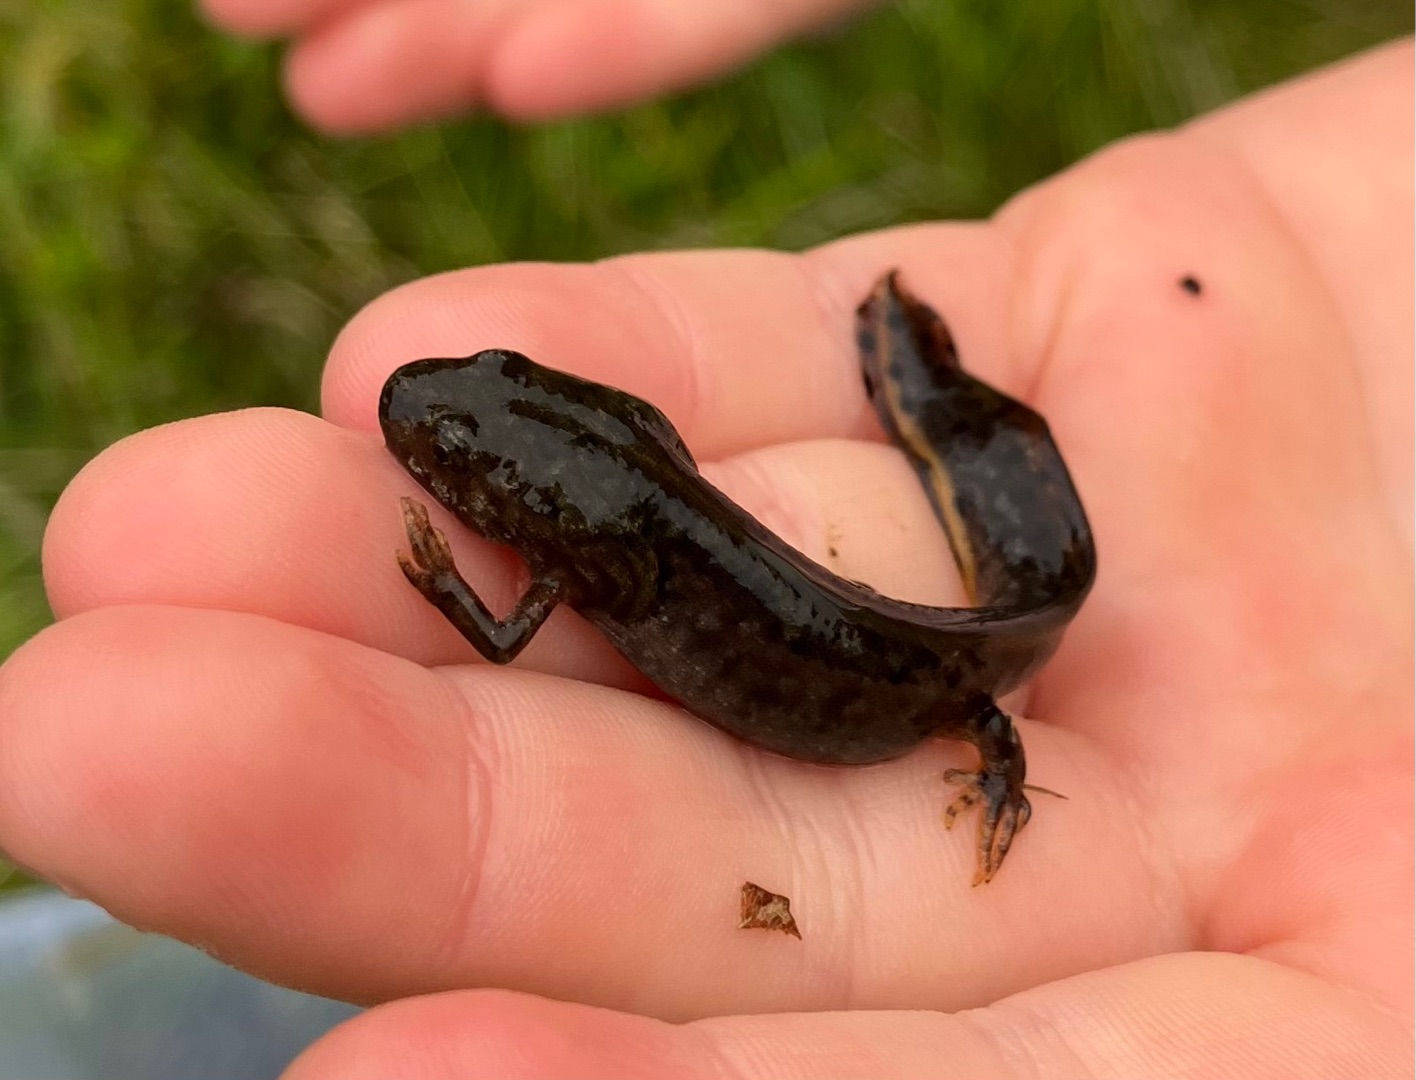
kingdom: Animalia
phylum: Chordata
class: Amphibia
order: Caudata
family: Salamandridae
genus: Triturus
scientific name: Triturus cristatus
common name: Stor vandsalamander
